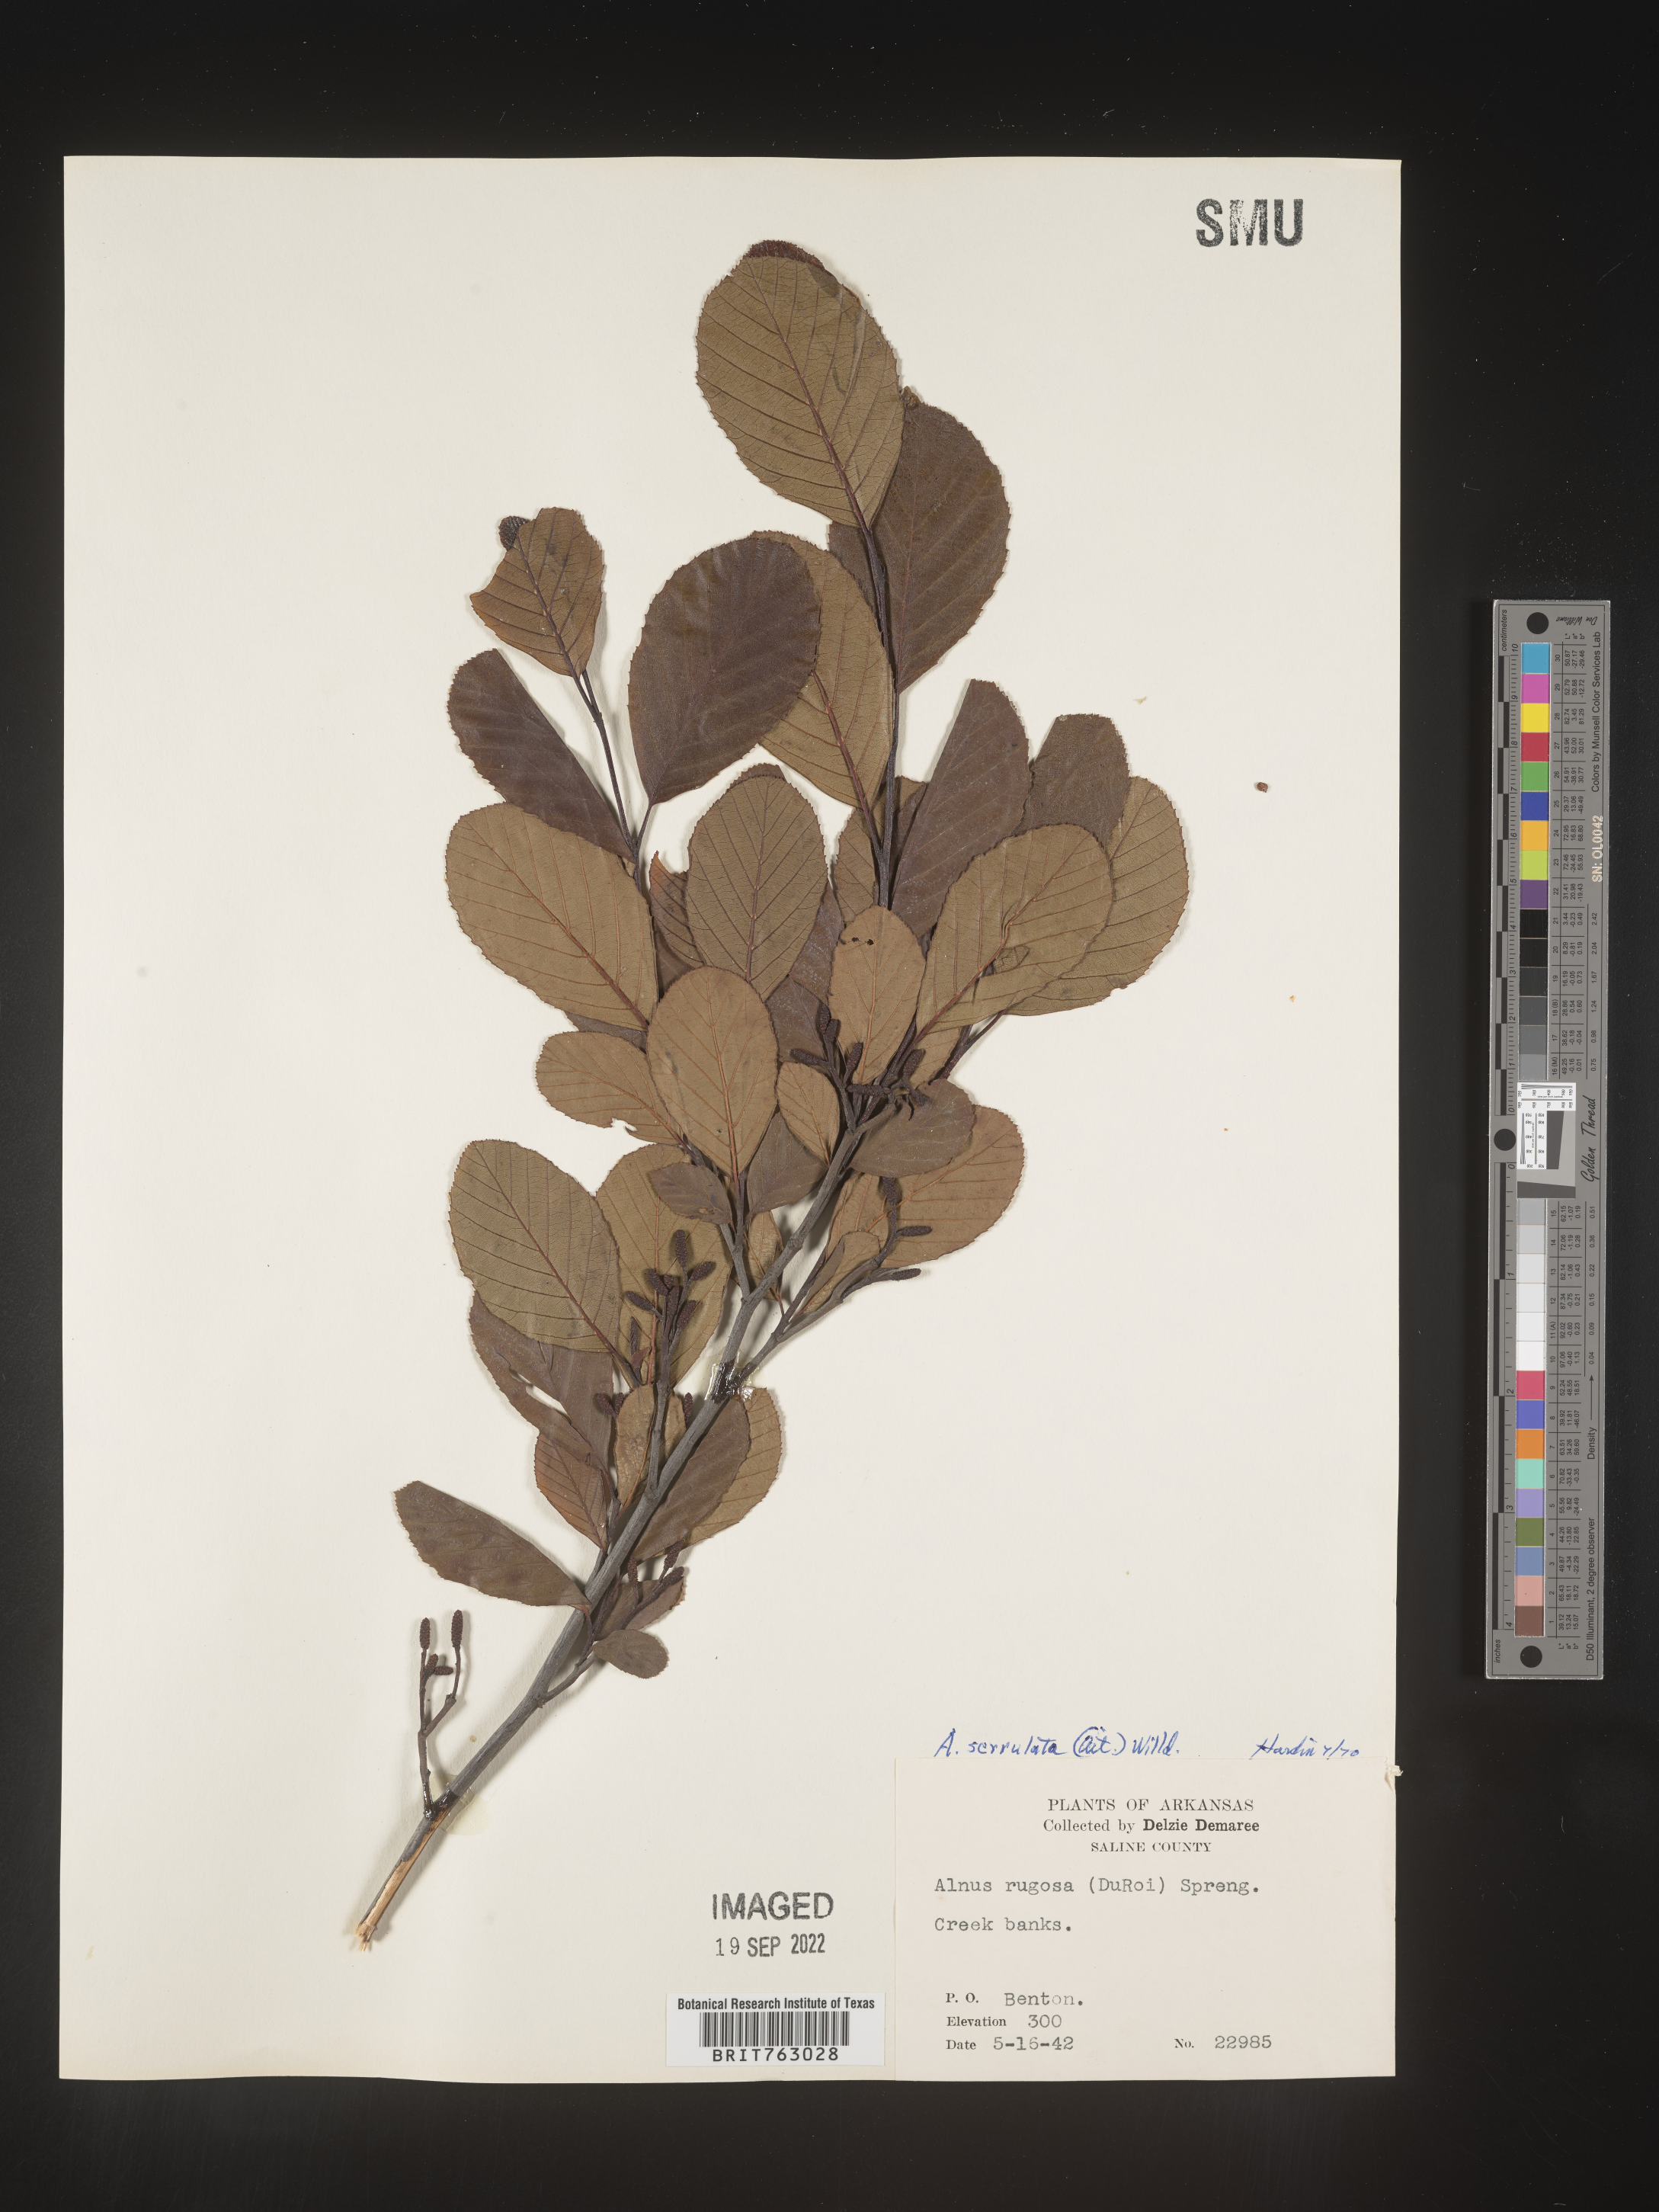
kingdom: Plantae
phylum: Tracheophyta
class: Magnoliopsida
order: Fagales
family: Betulaceae
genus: Alnus
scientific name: Alnus serrulata
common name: Hazel alder
